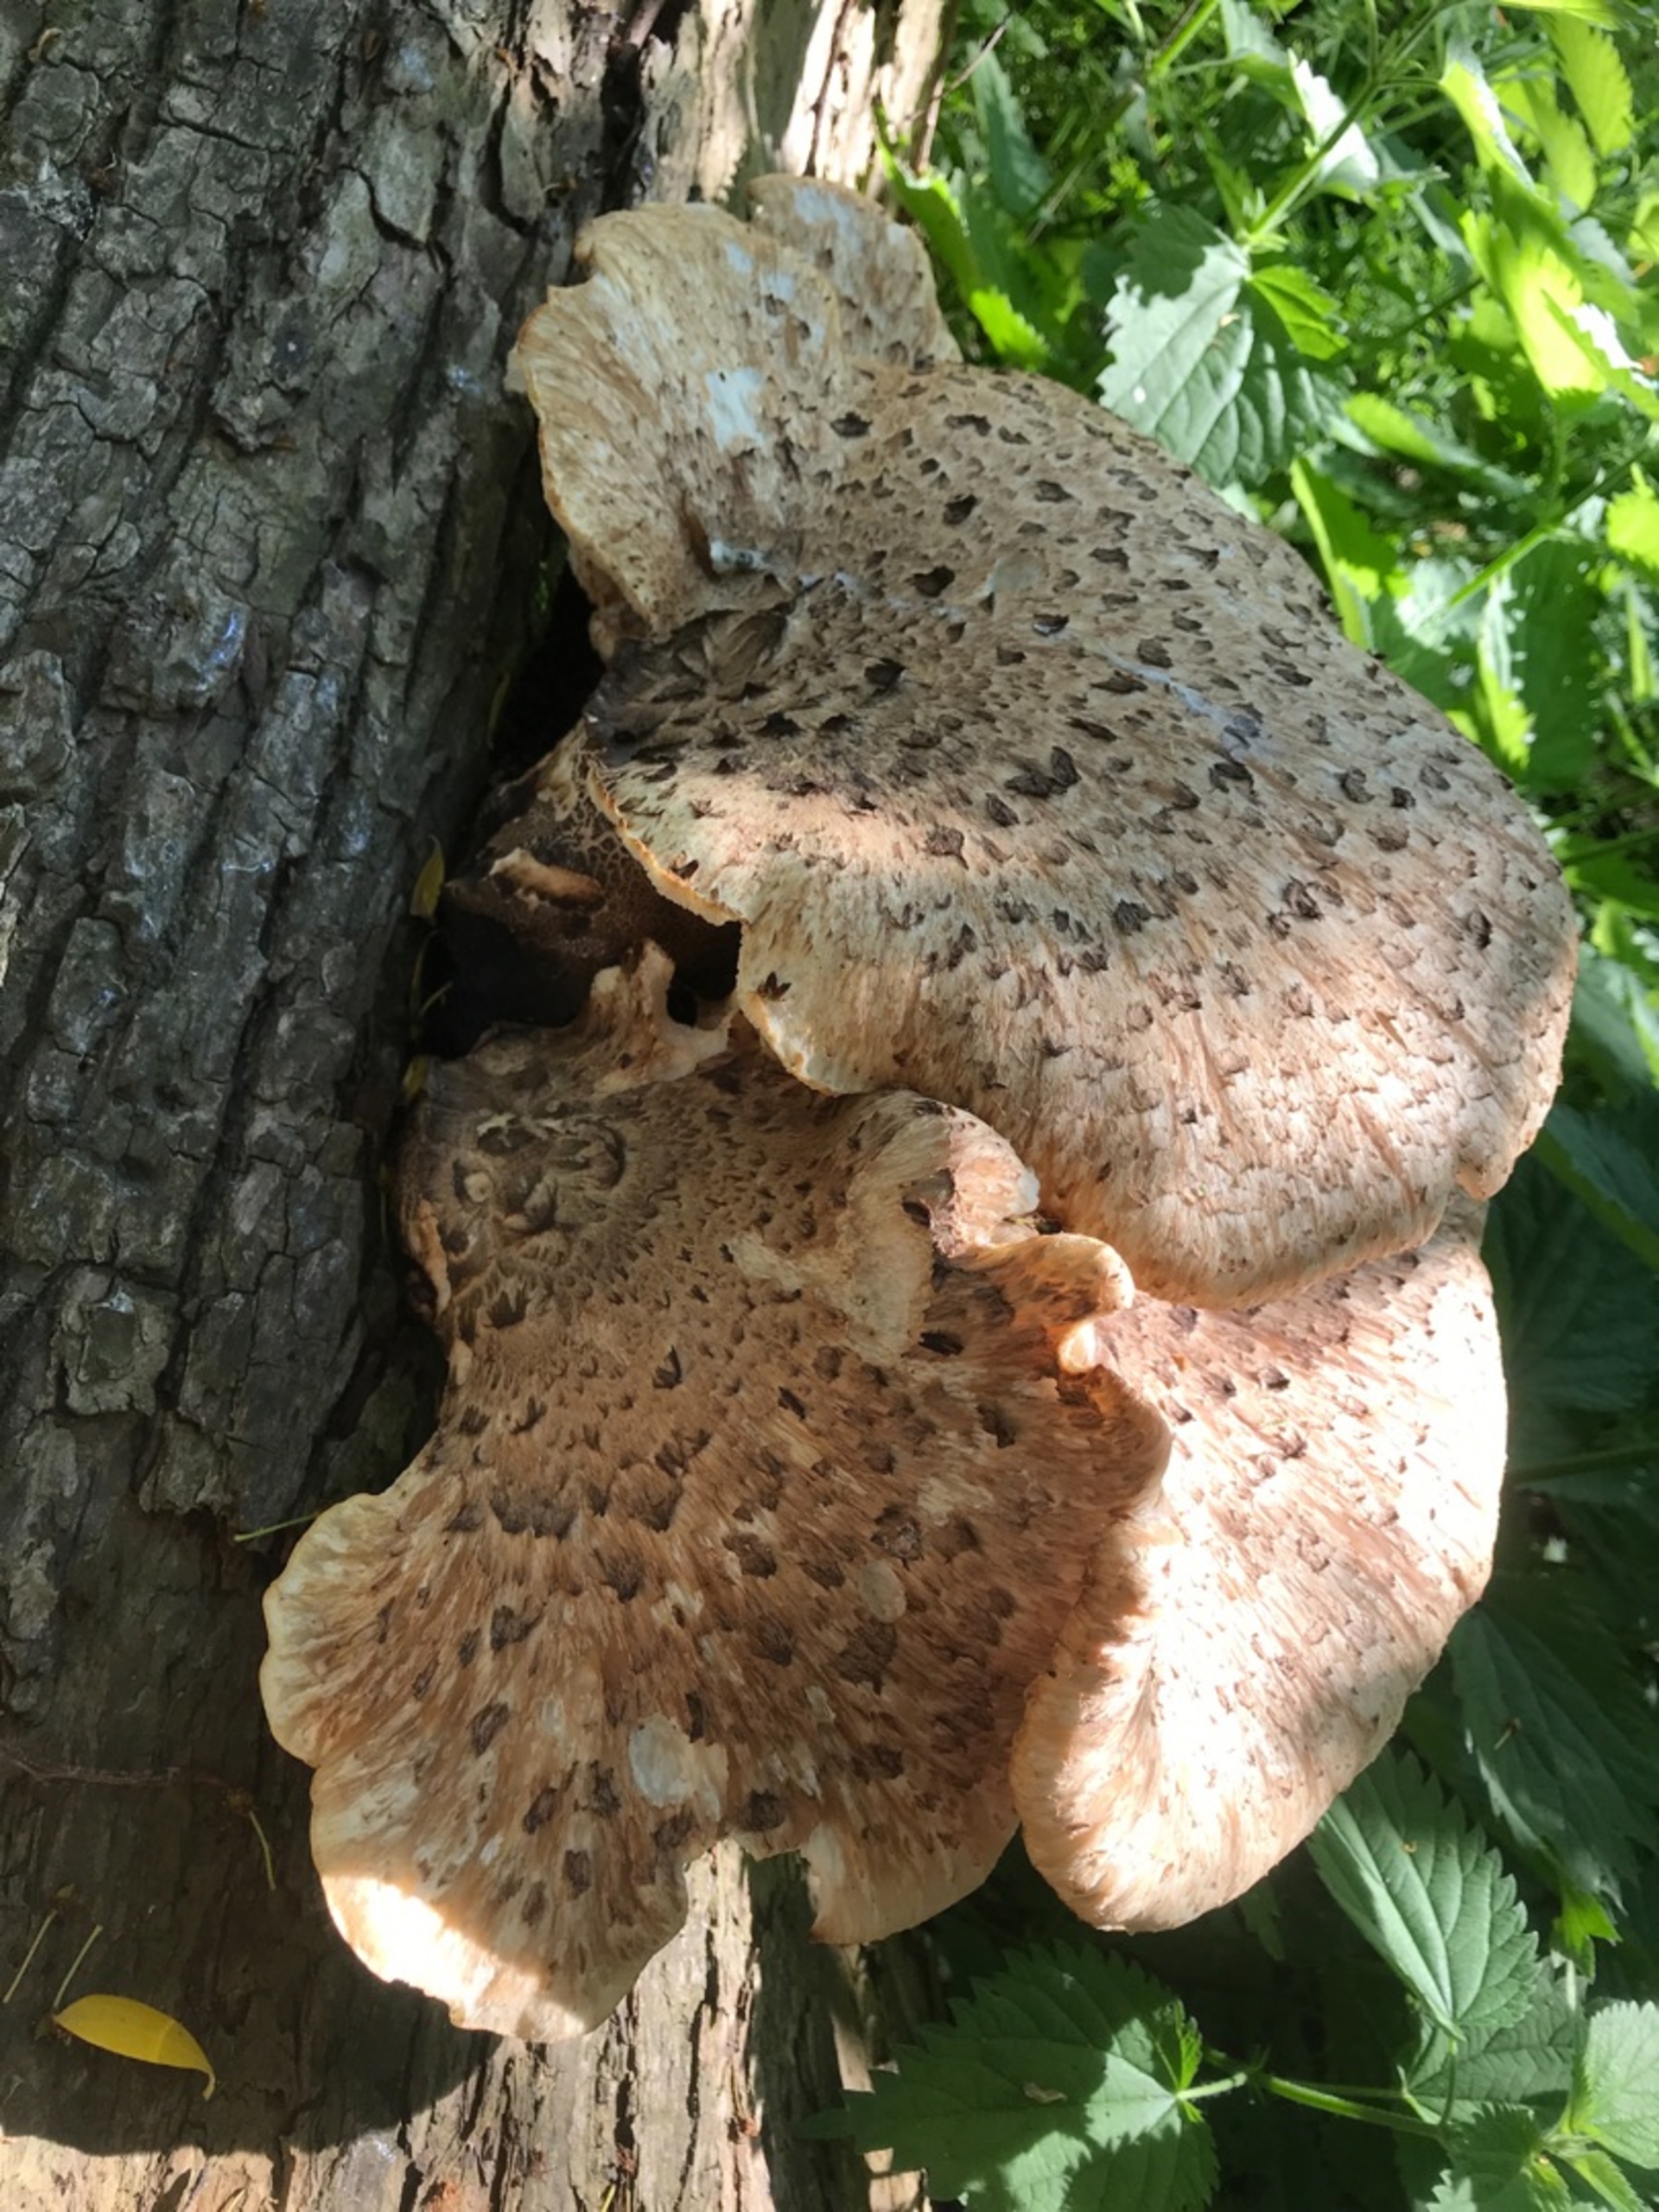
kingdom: Fungi
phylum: Basidiomycota
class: Agaricomycetes
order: Polyporales
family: Polyporaceae
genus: Cerioporus
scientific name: Cerioporus squamosus
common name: Skællet stilkporesvamp
